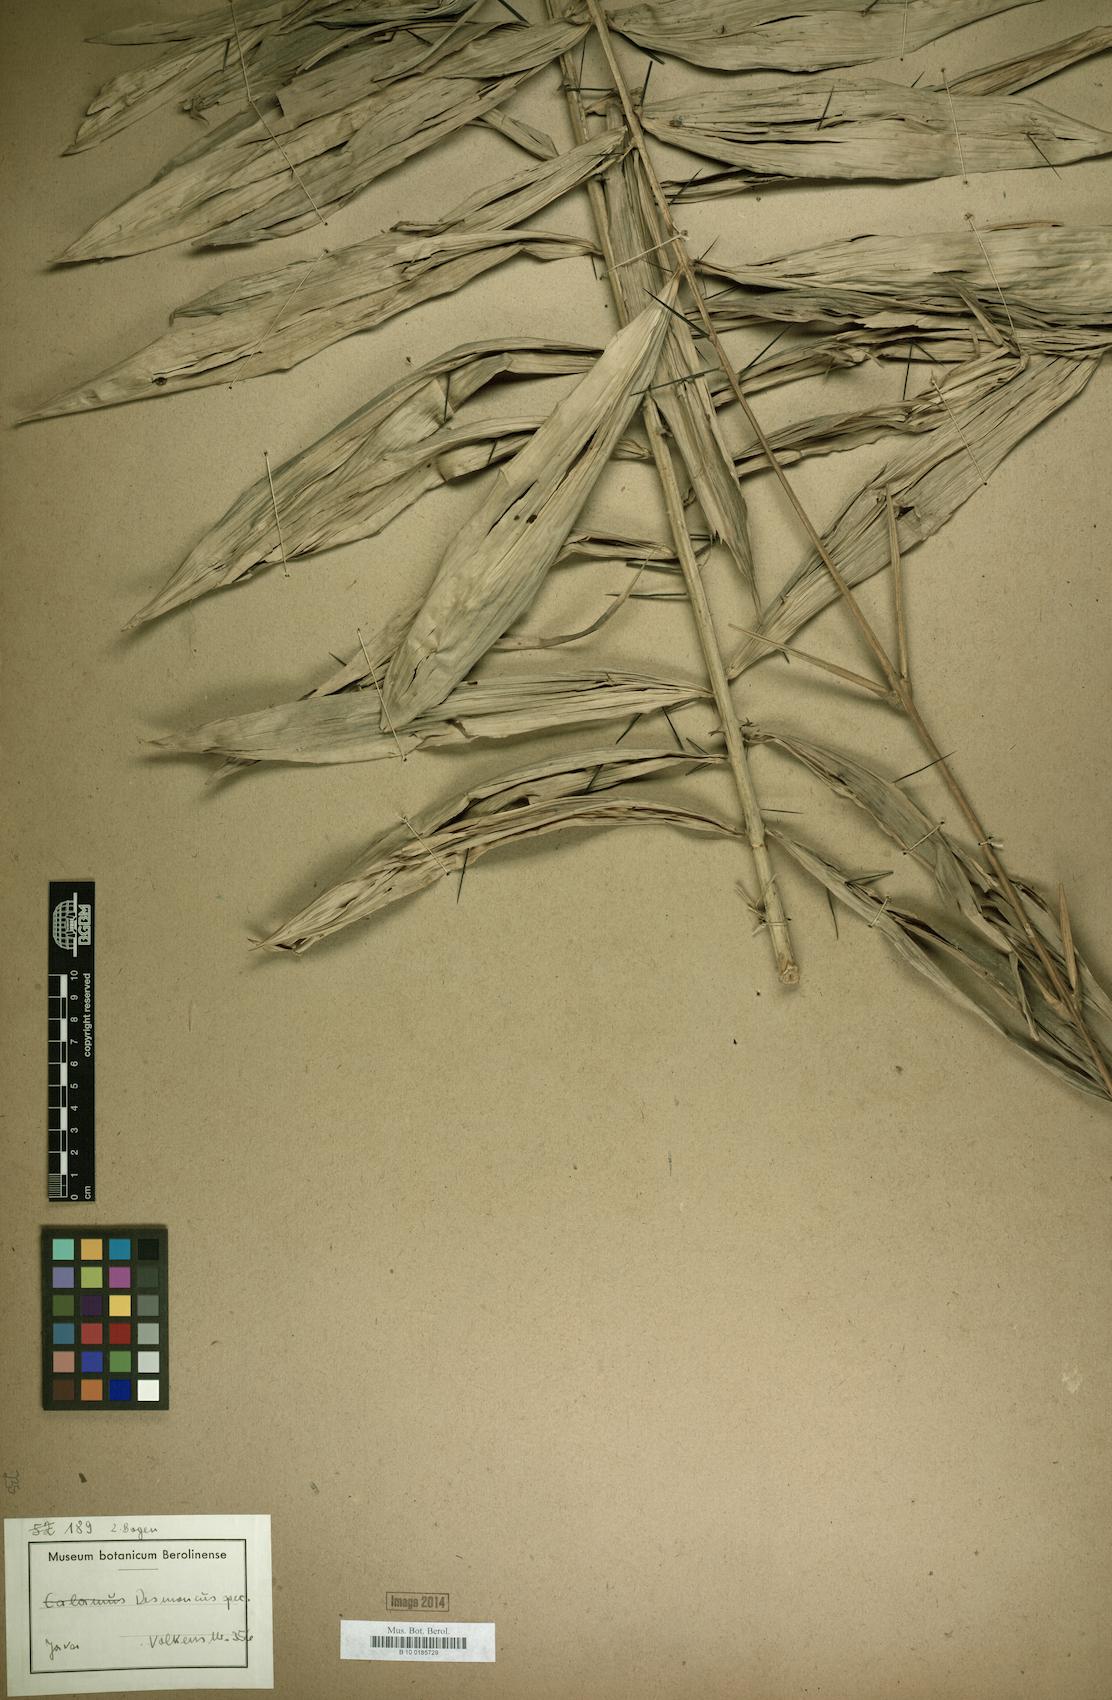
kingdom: Plantae
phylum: Tracheophyta
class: Liliopsida
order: Arecales
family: Arecaceae
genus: Desmoncus
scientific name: Desmoncus
